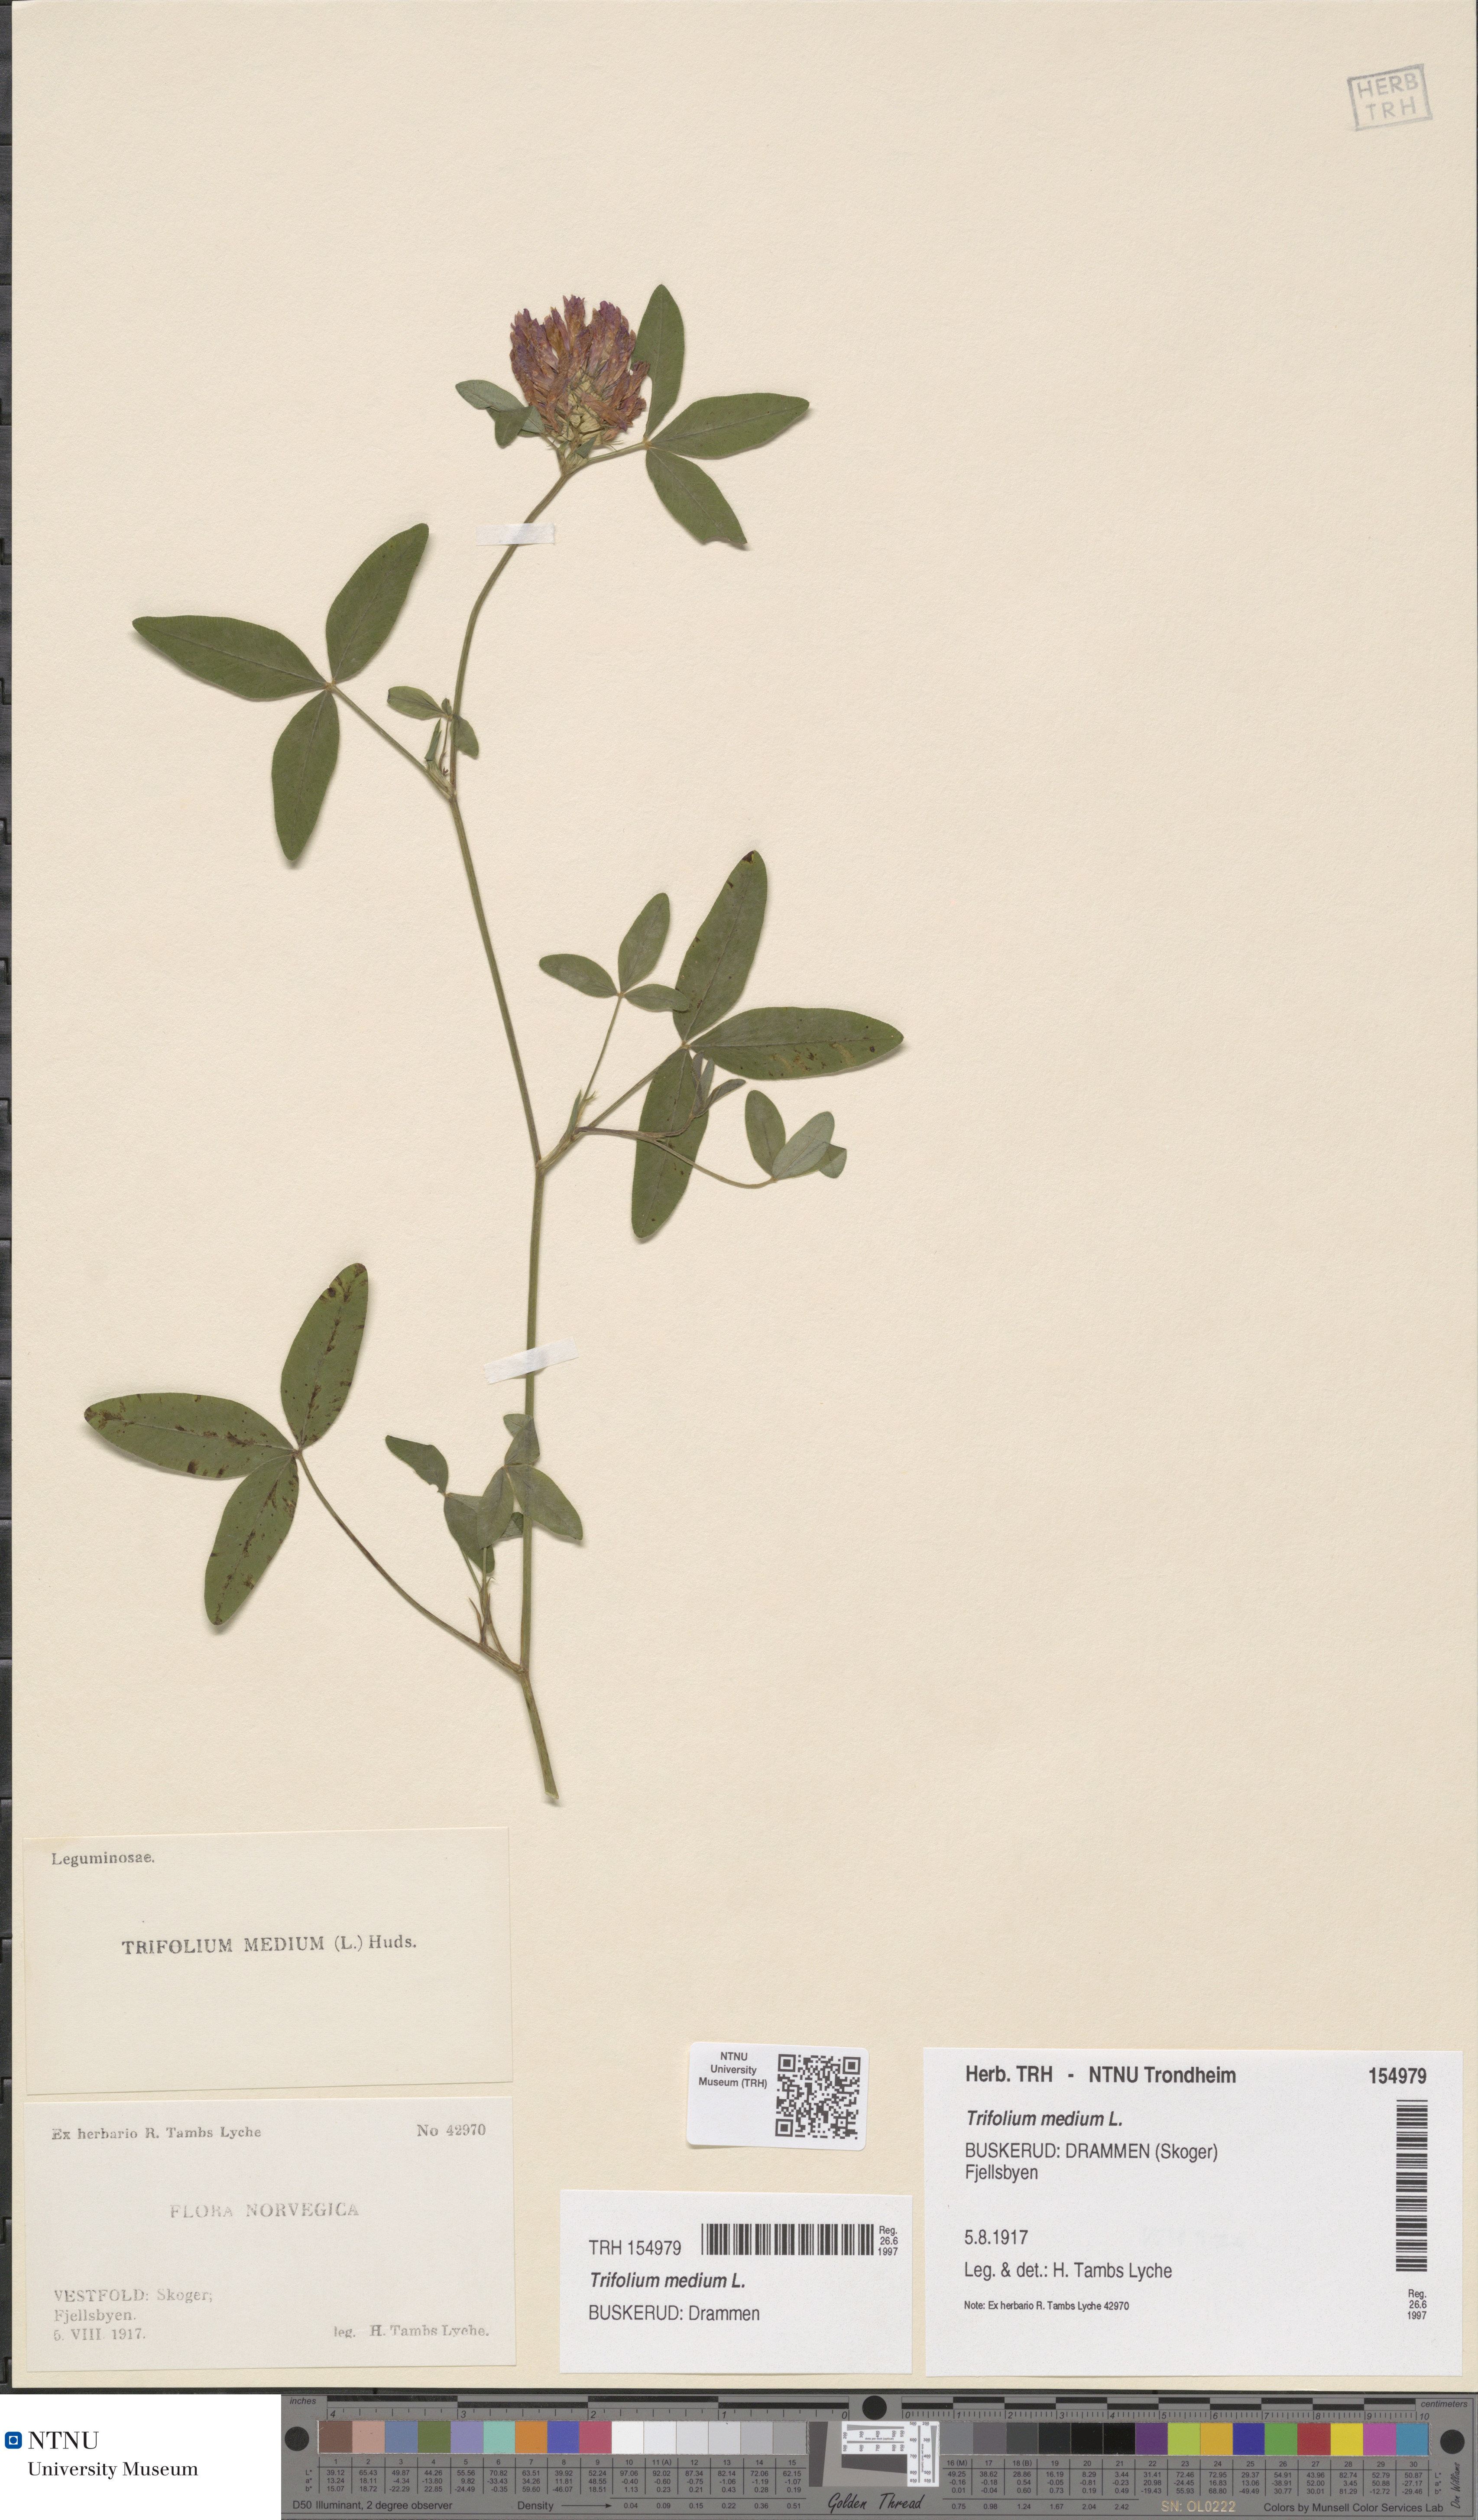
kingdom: Plantae
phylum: Tracheophyta
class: Magnoliopsida
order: Fabales
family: Fabaceae
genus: Trifolium
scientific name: Trifolium medium
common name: Zigzag clover
